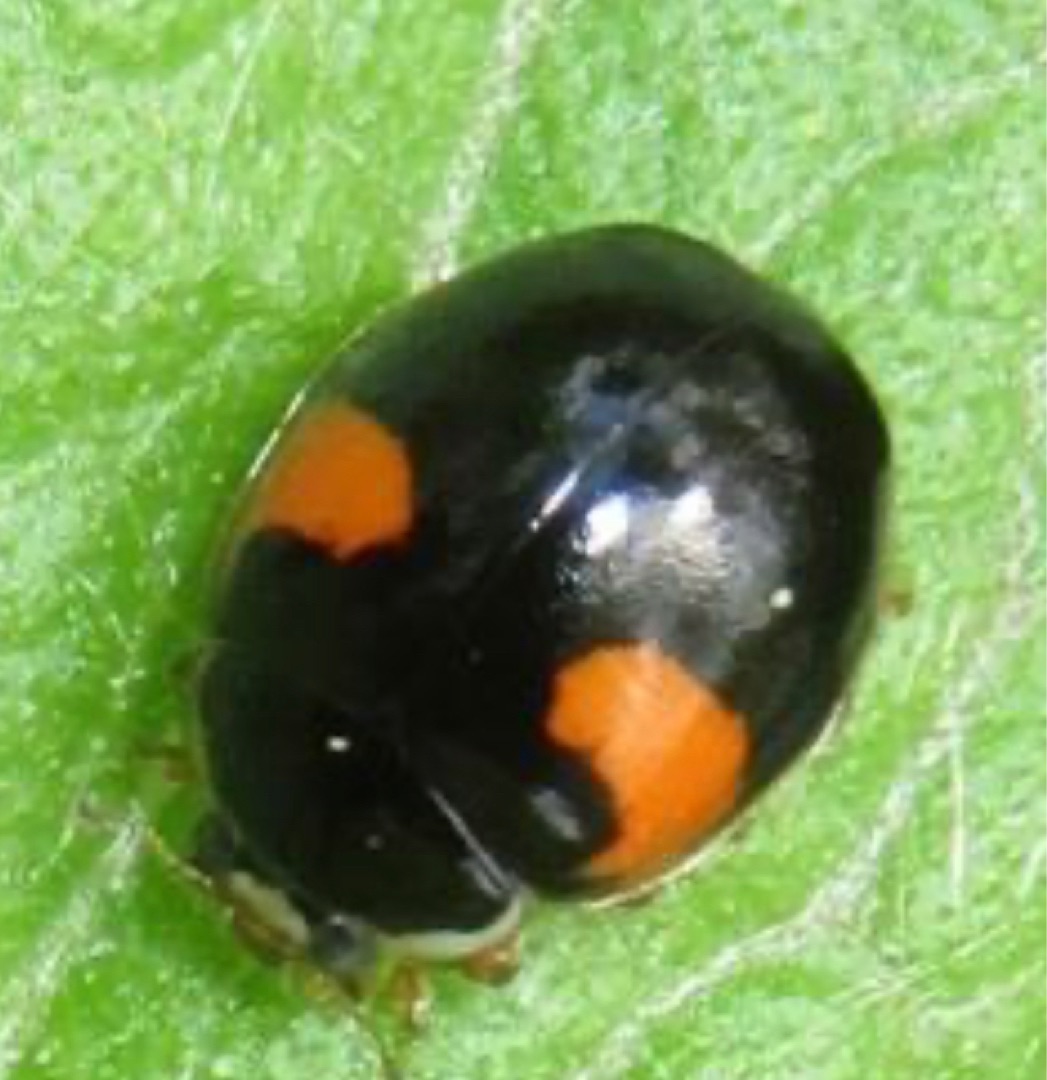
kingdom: Animalia
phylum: Arthropoda
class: Insecta
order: Coleoptera
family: Coccinellidae
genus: Harmonia
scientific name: Harmonia axyridis
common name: Harlekinmariehøne
